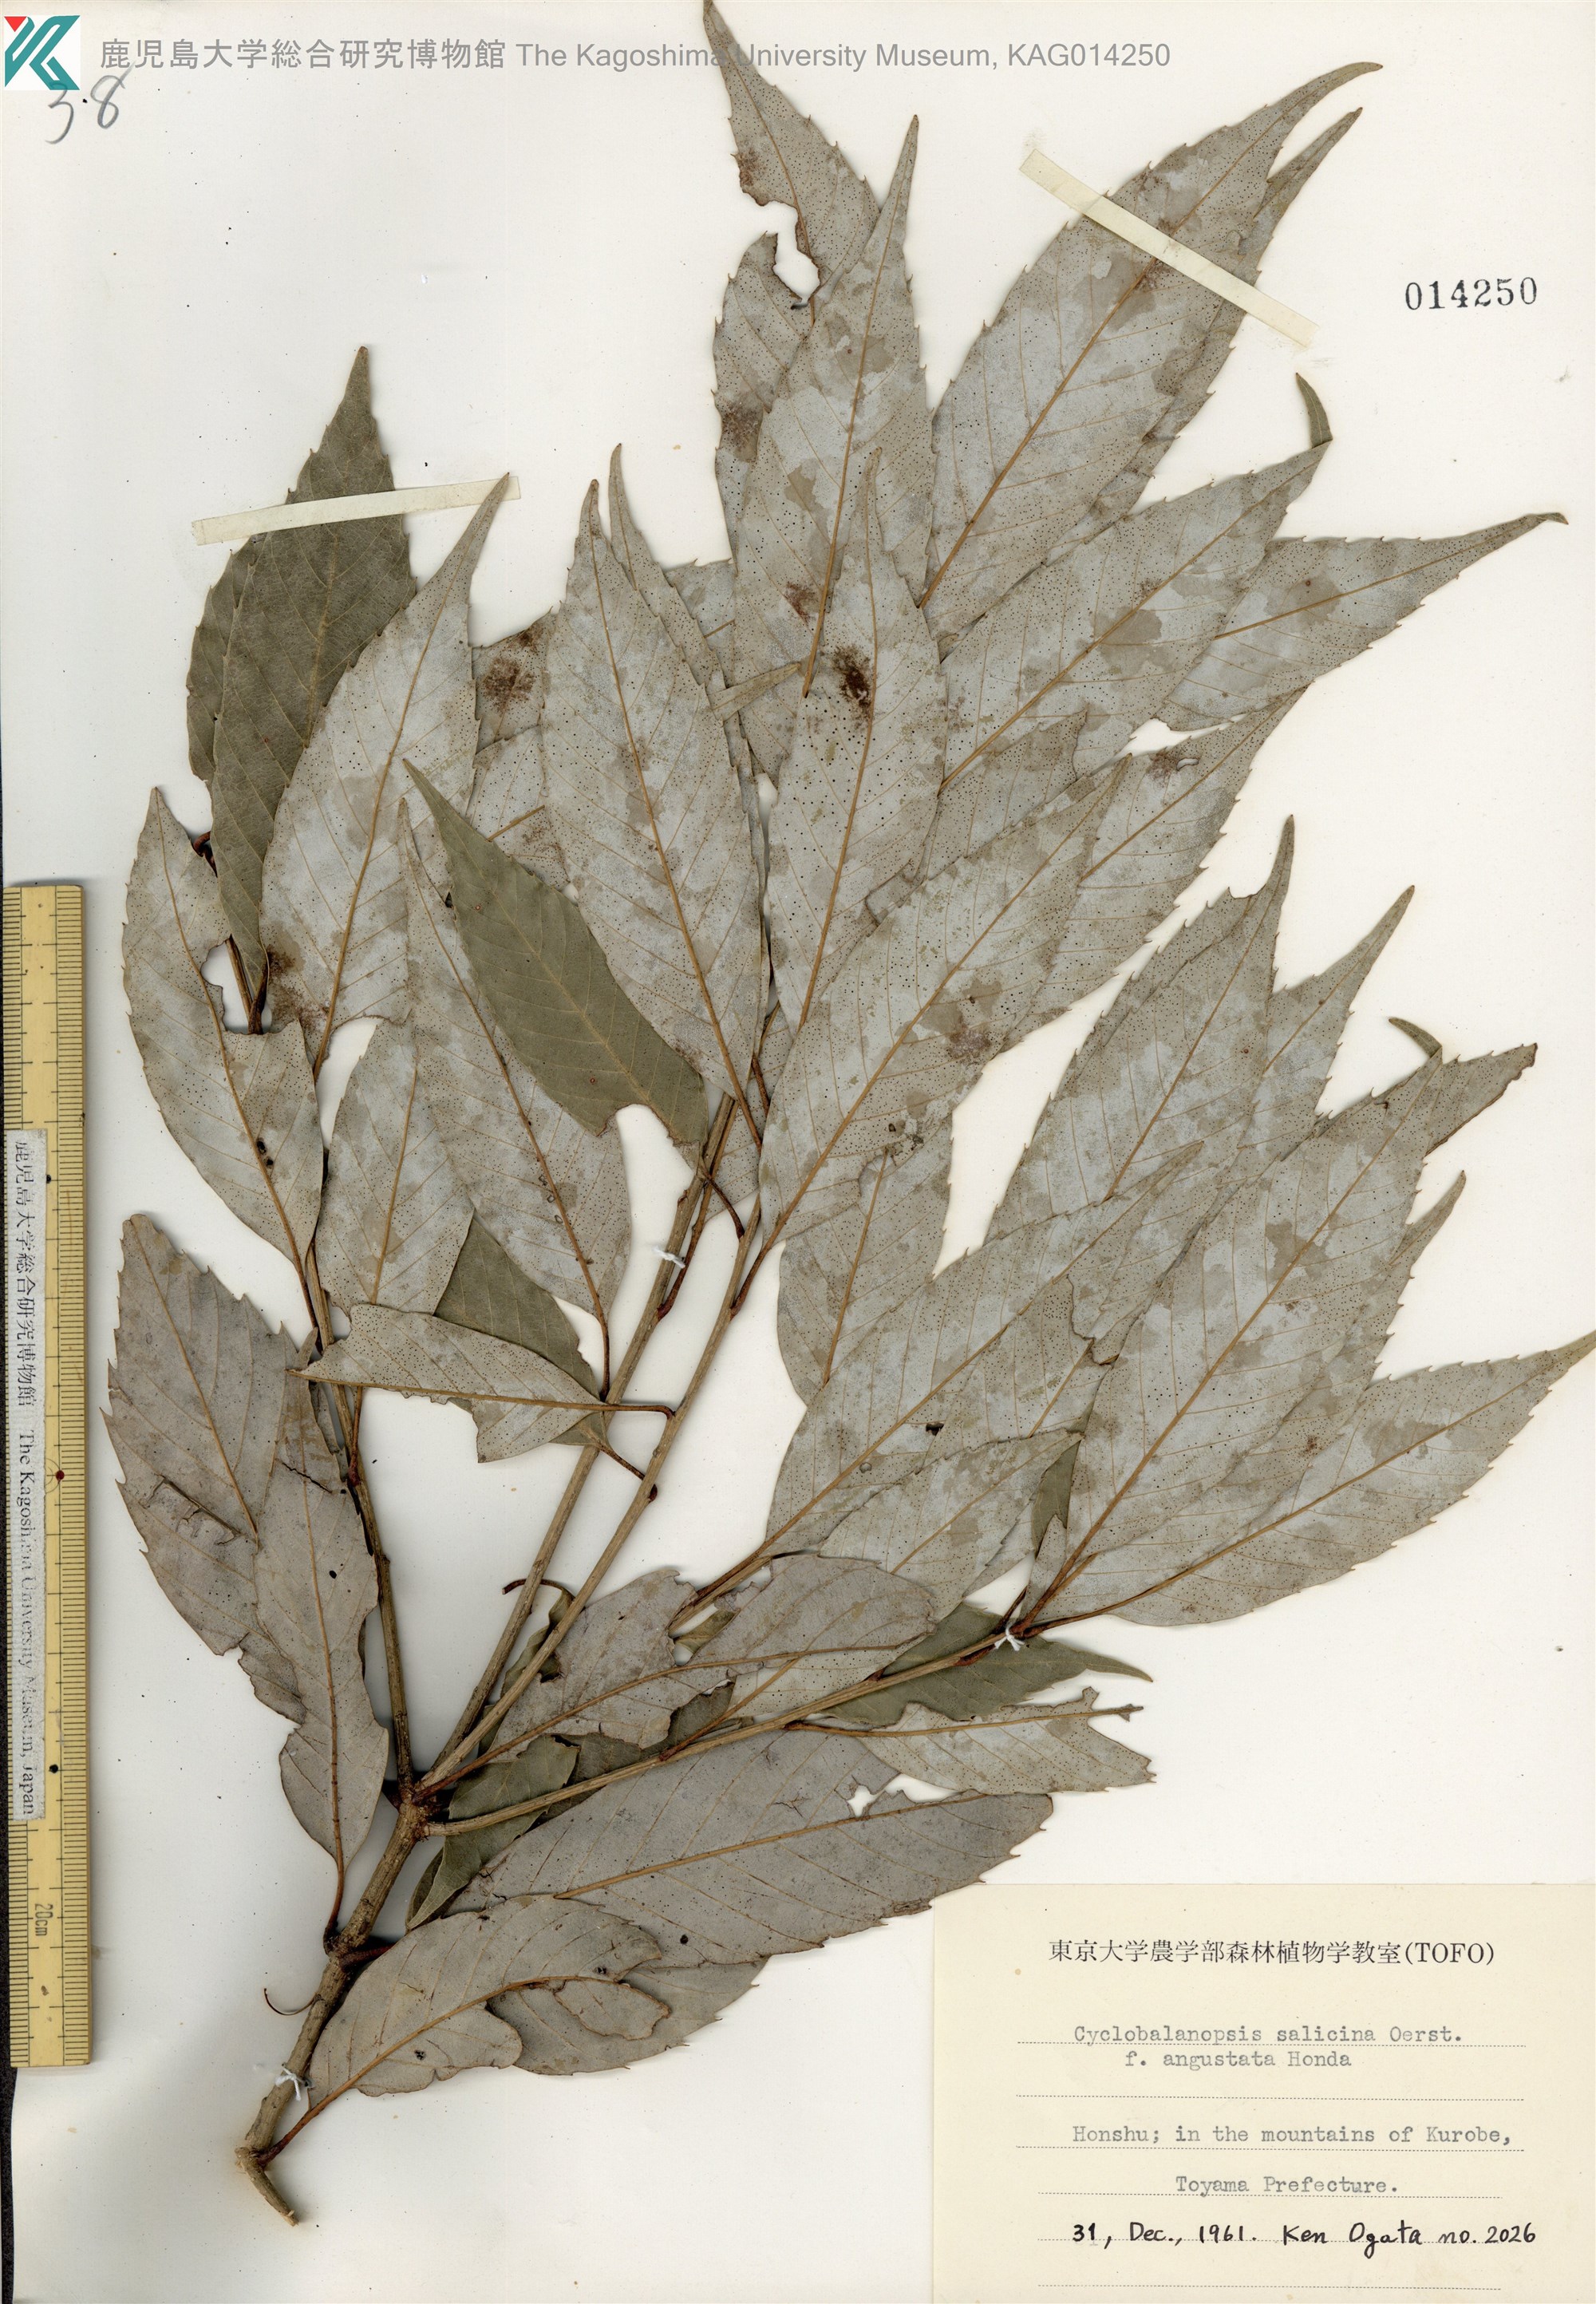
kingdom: Plantae
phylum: Tracheophyta
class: Magnoliopsida
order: Fagales
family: Fagaceae
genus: Quercus
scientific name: Quercus salicina
